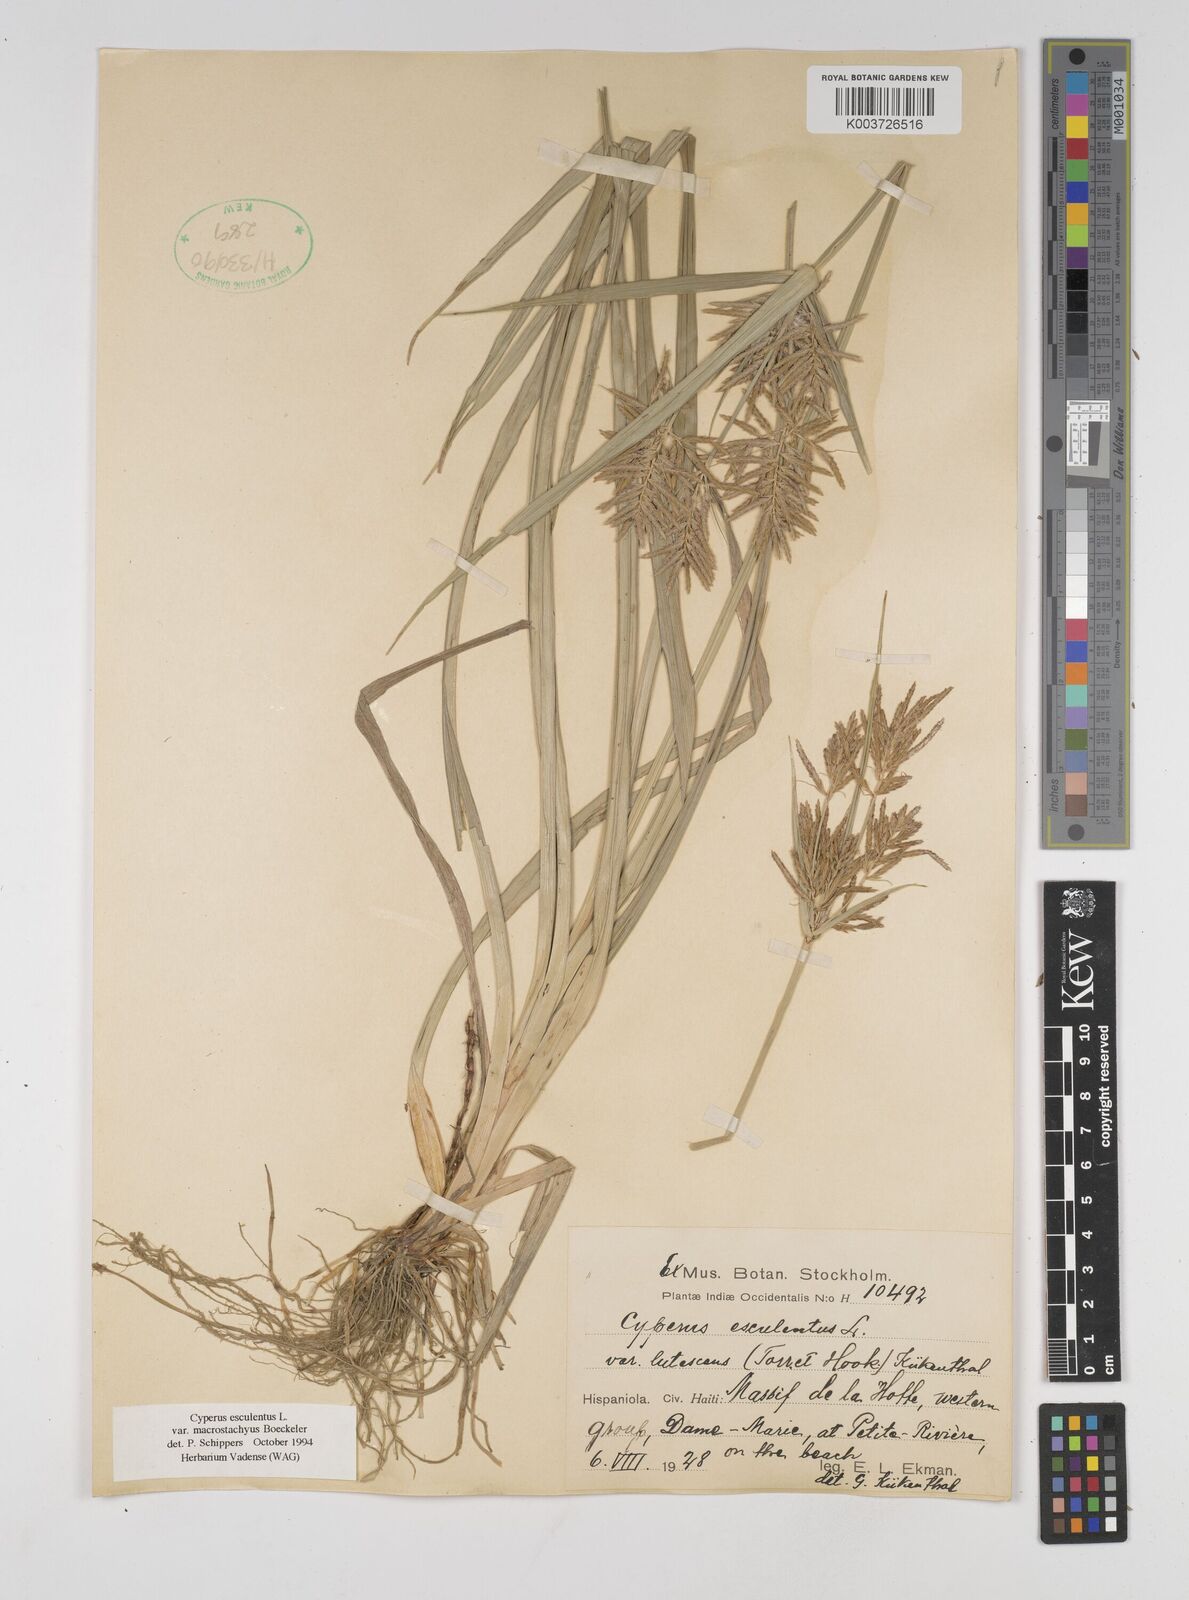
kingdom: Plantae
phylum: Tracheophyta
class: Liliopsida
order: Poales
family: Cyperaceae
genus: Cyperus
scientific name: Cyperus esculentus
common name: Yellow nutsedge
